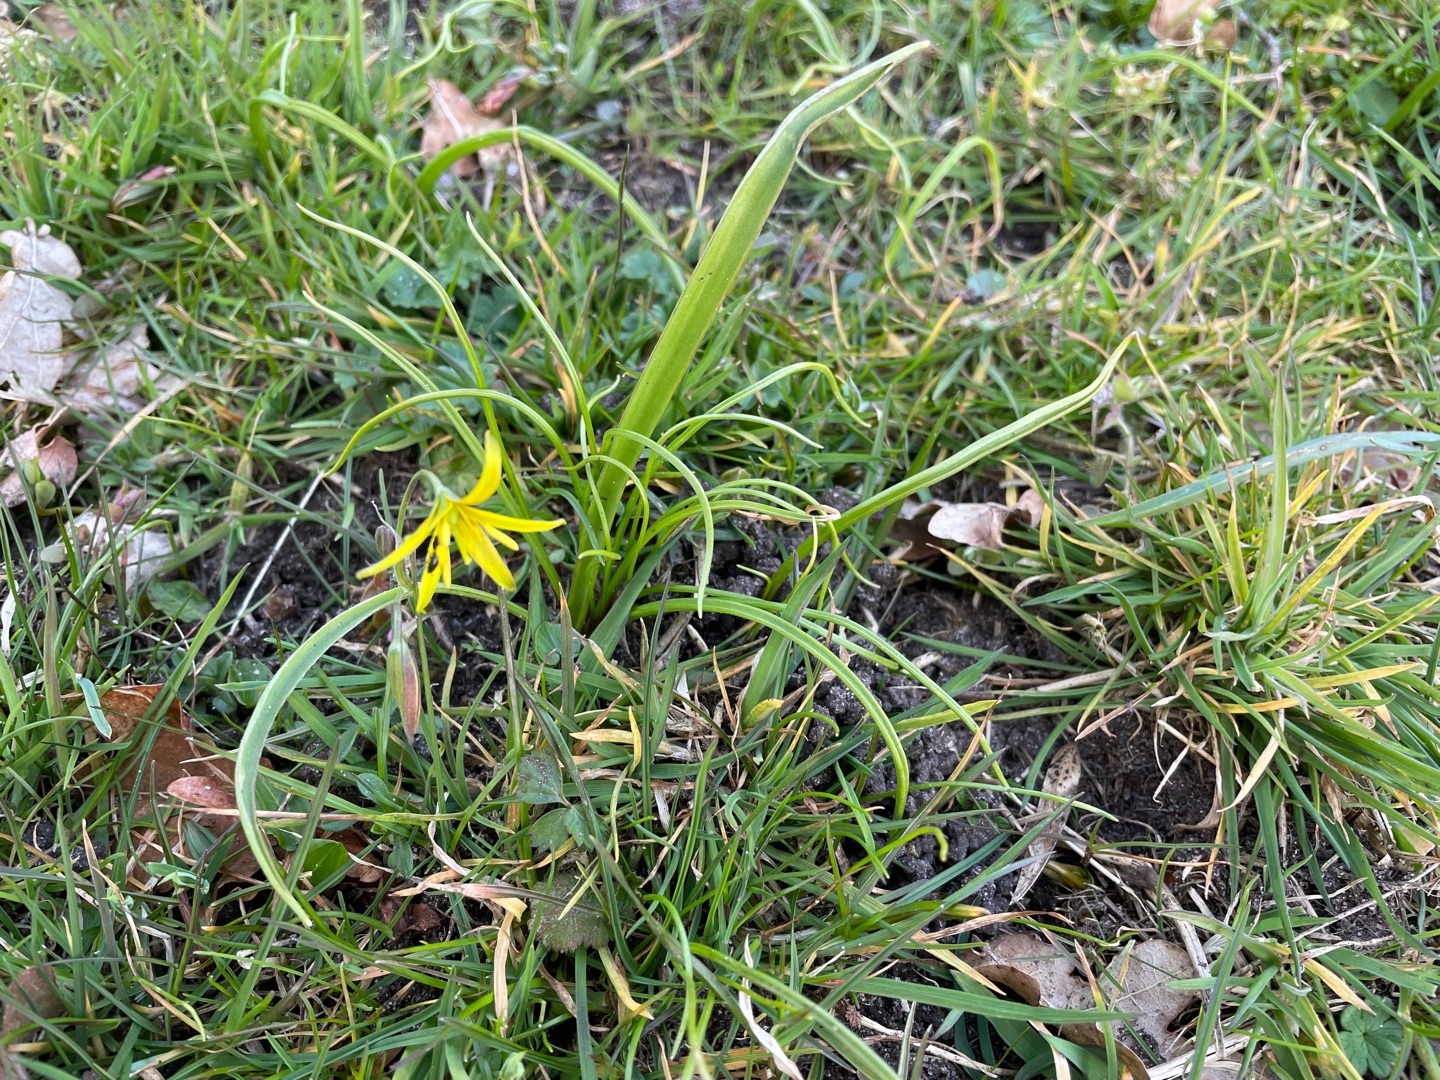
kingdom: Plantae
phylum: Tracheophyta
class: Liliopsida
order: Liliales
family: Liliaceae
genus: Gagea
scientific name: Gagea lutea
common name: Almindelig guldstjerne
